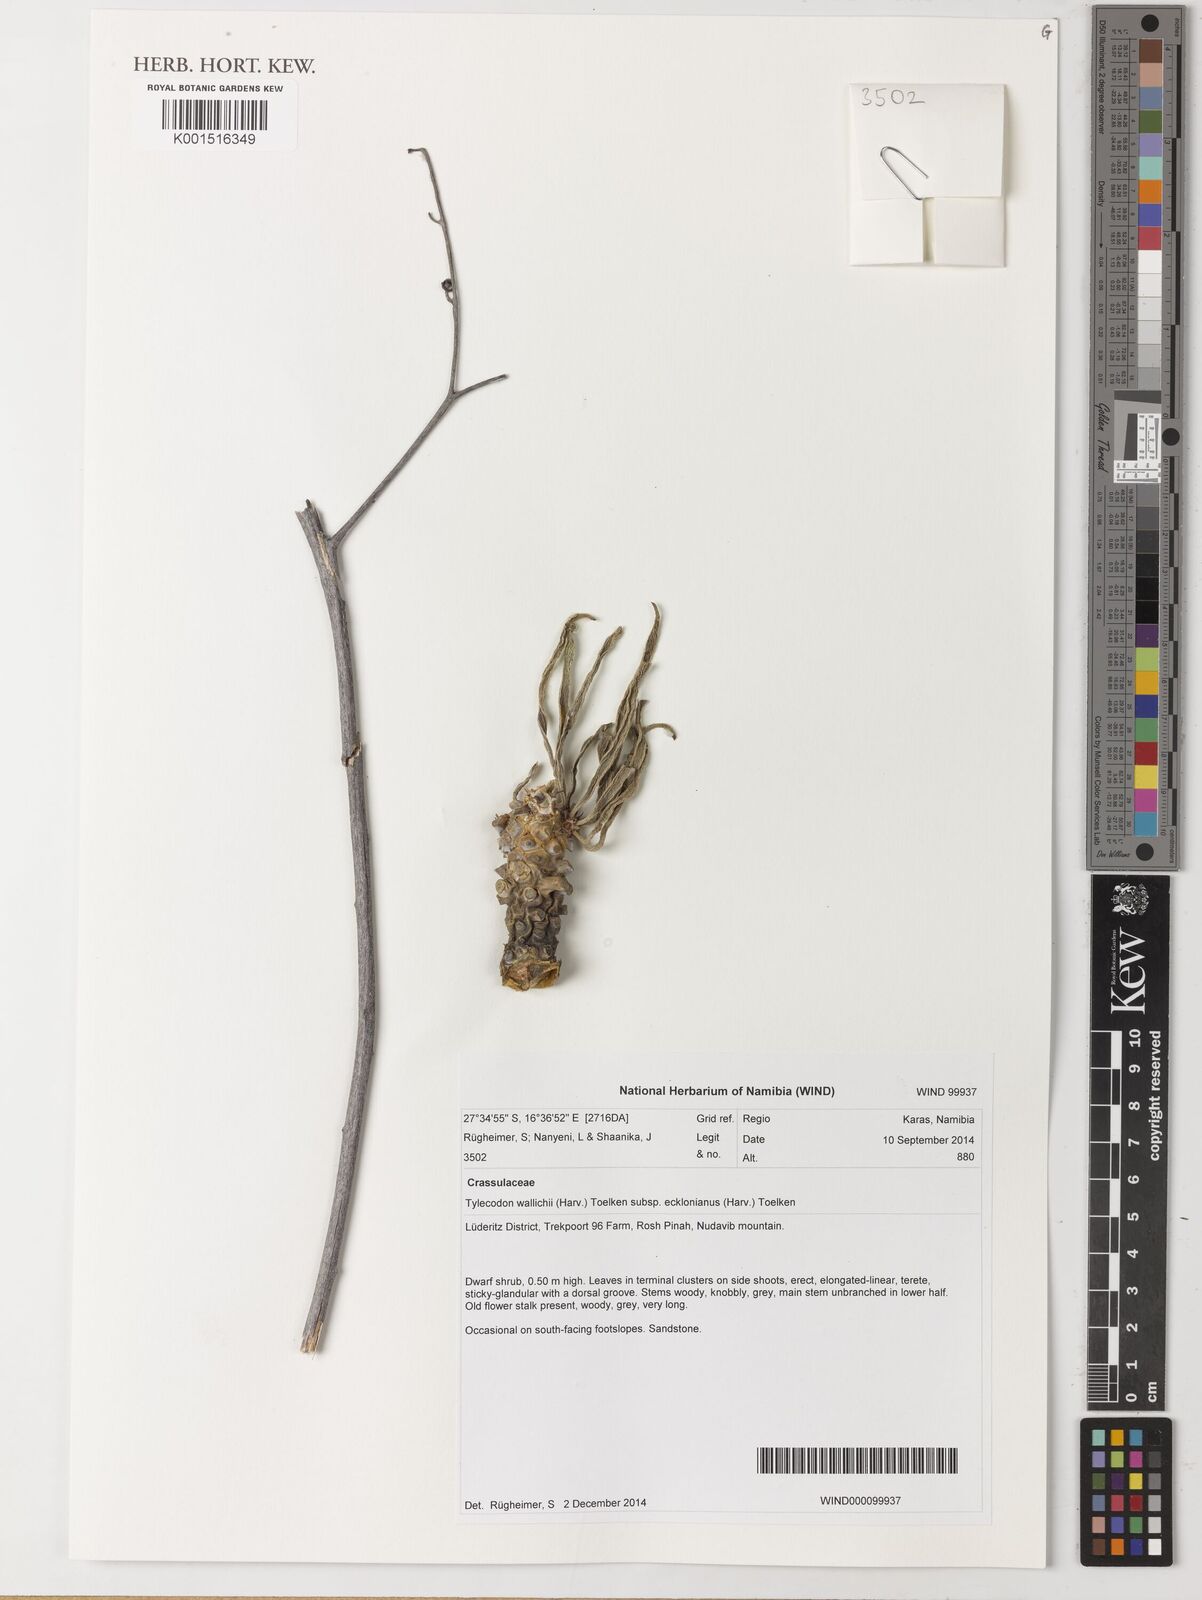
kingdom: Plantae
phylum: Tracheophyta
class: Magnoliopsida
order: Saxifragales
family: Crassulaceae
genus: Tylecodon
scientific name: Tylecodon wallichii
